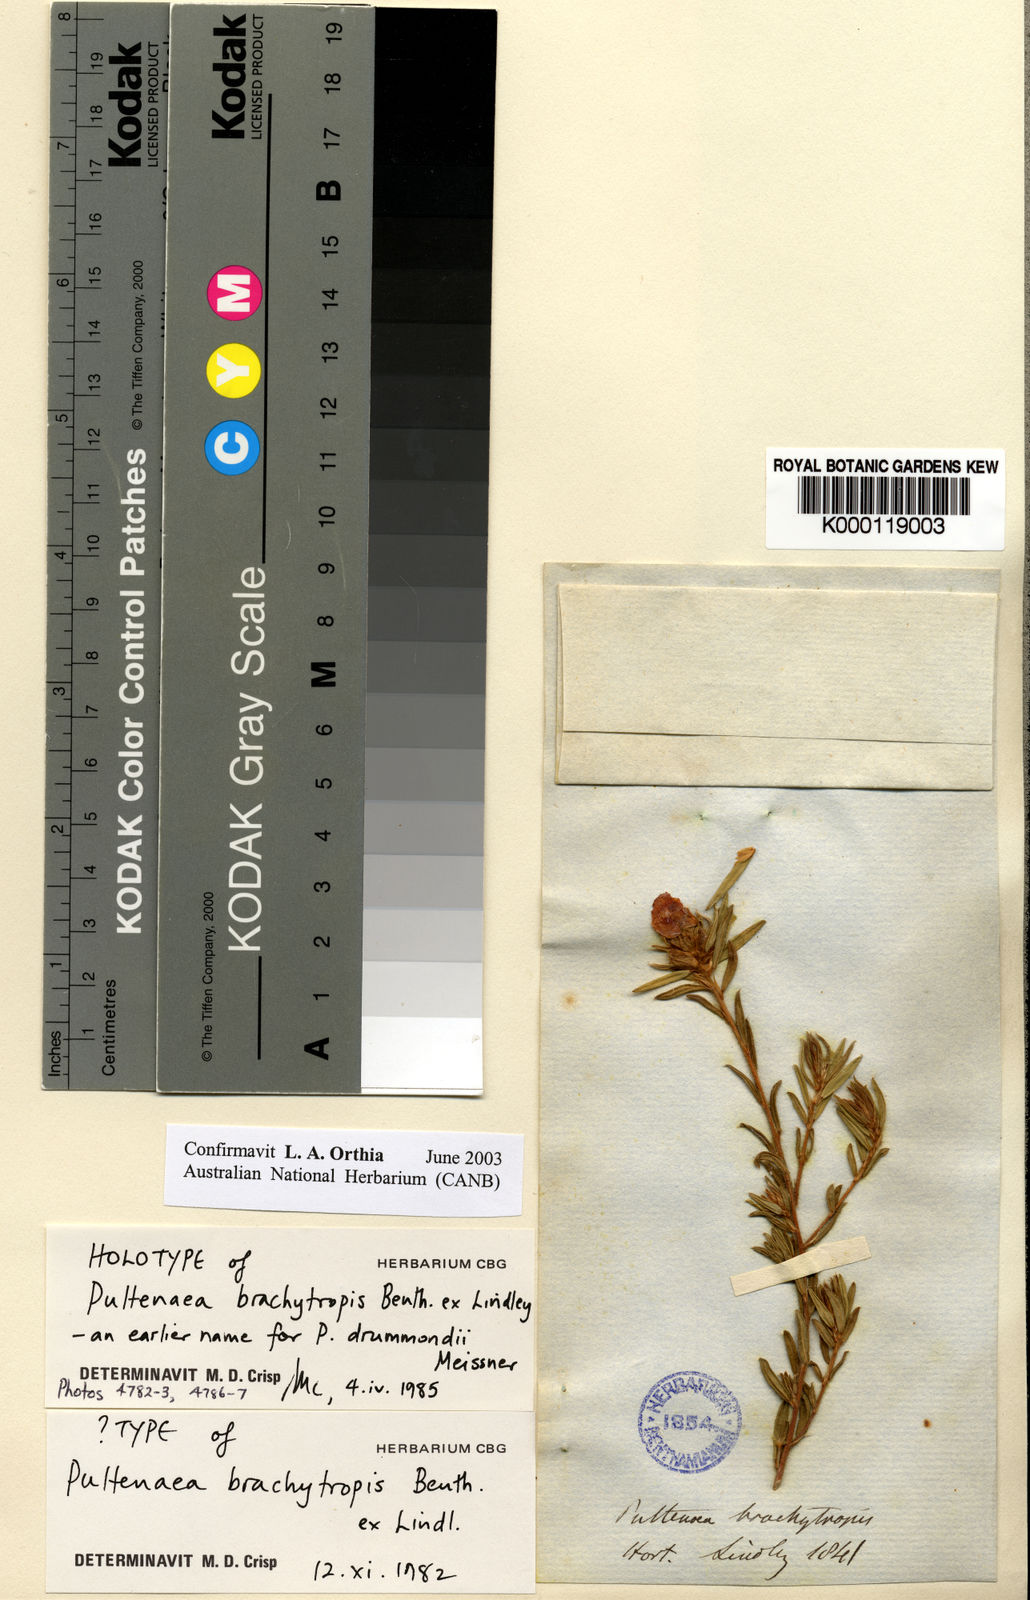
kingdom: Plantae
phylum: Tracheophyta
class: Magnoliopsida
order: Fabales
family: Fabaceae
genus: Pultenaea
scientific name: Pultenaea brachytropis
